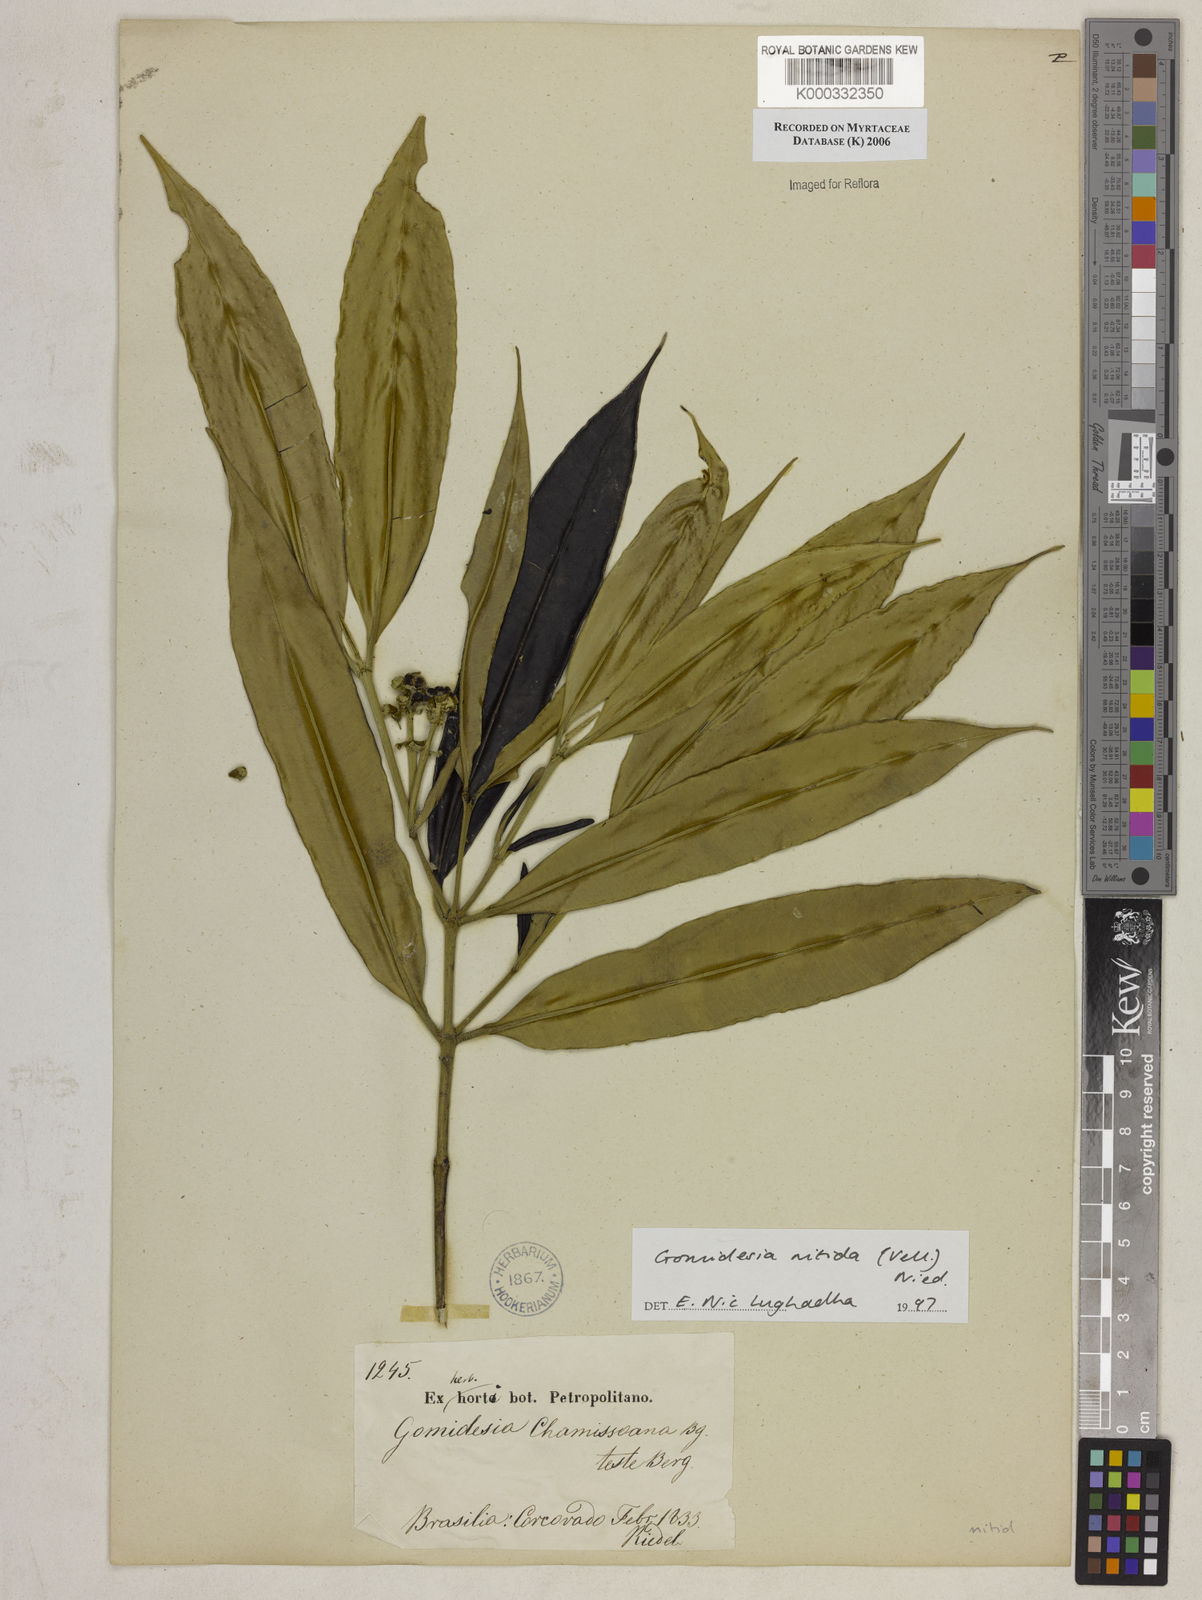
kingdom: Plantae
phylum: Tracheophyta
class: Magnoliopsida
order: Myrtales
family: Myrtaceae
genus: Myrcia
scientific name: Myrcia subsericea
